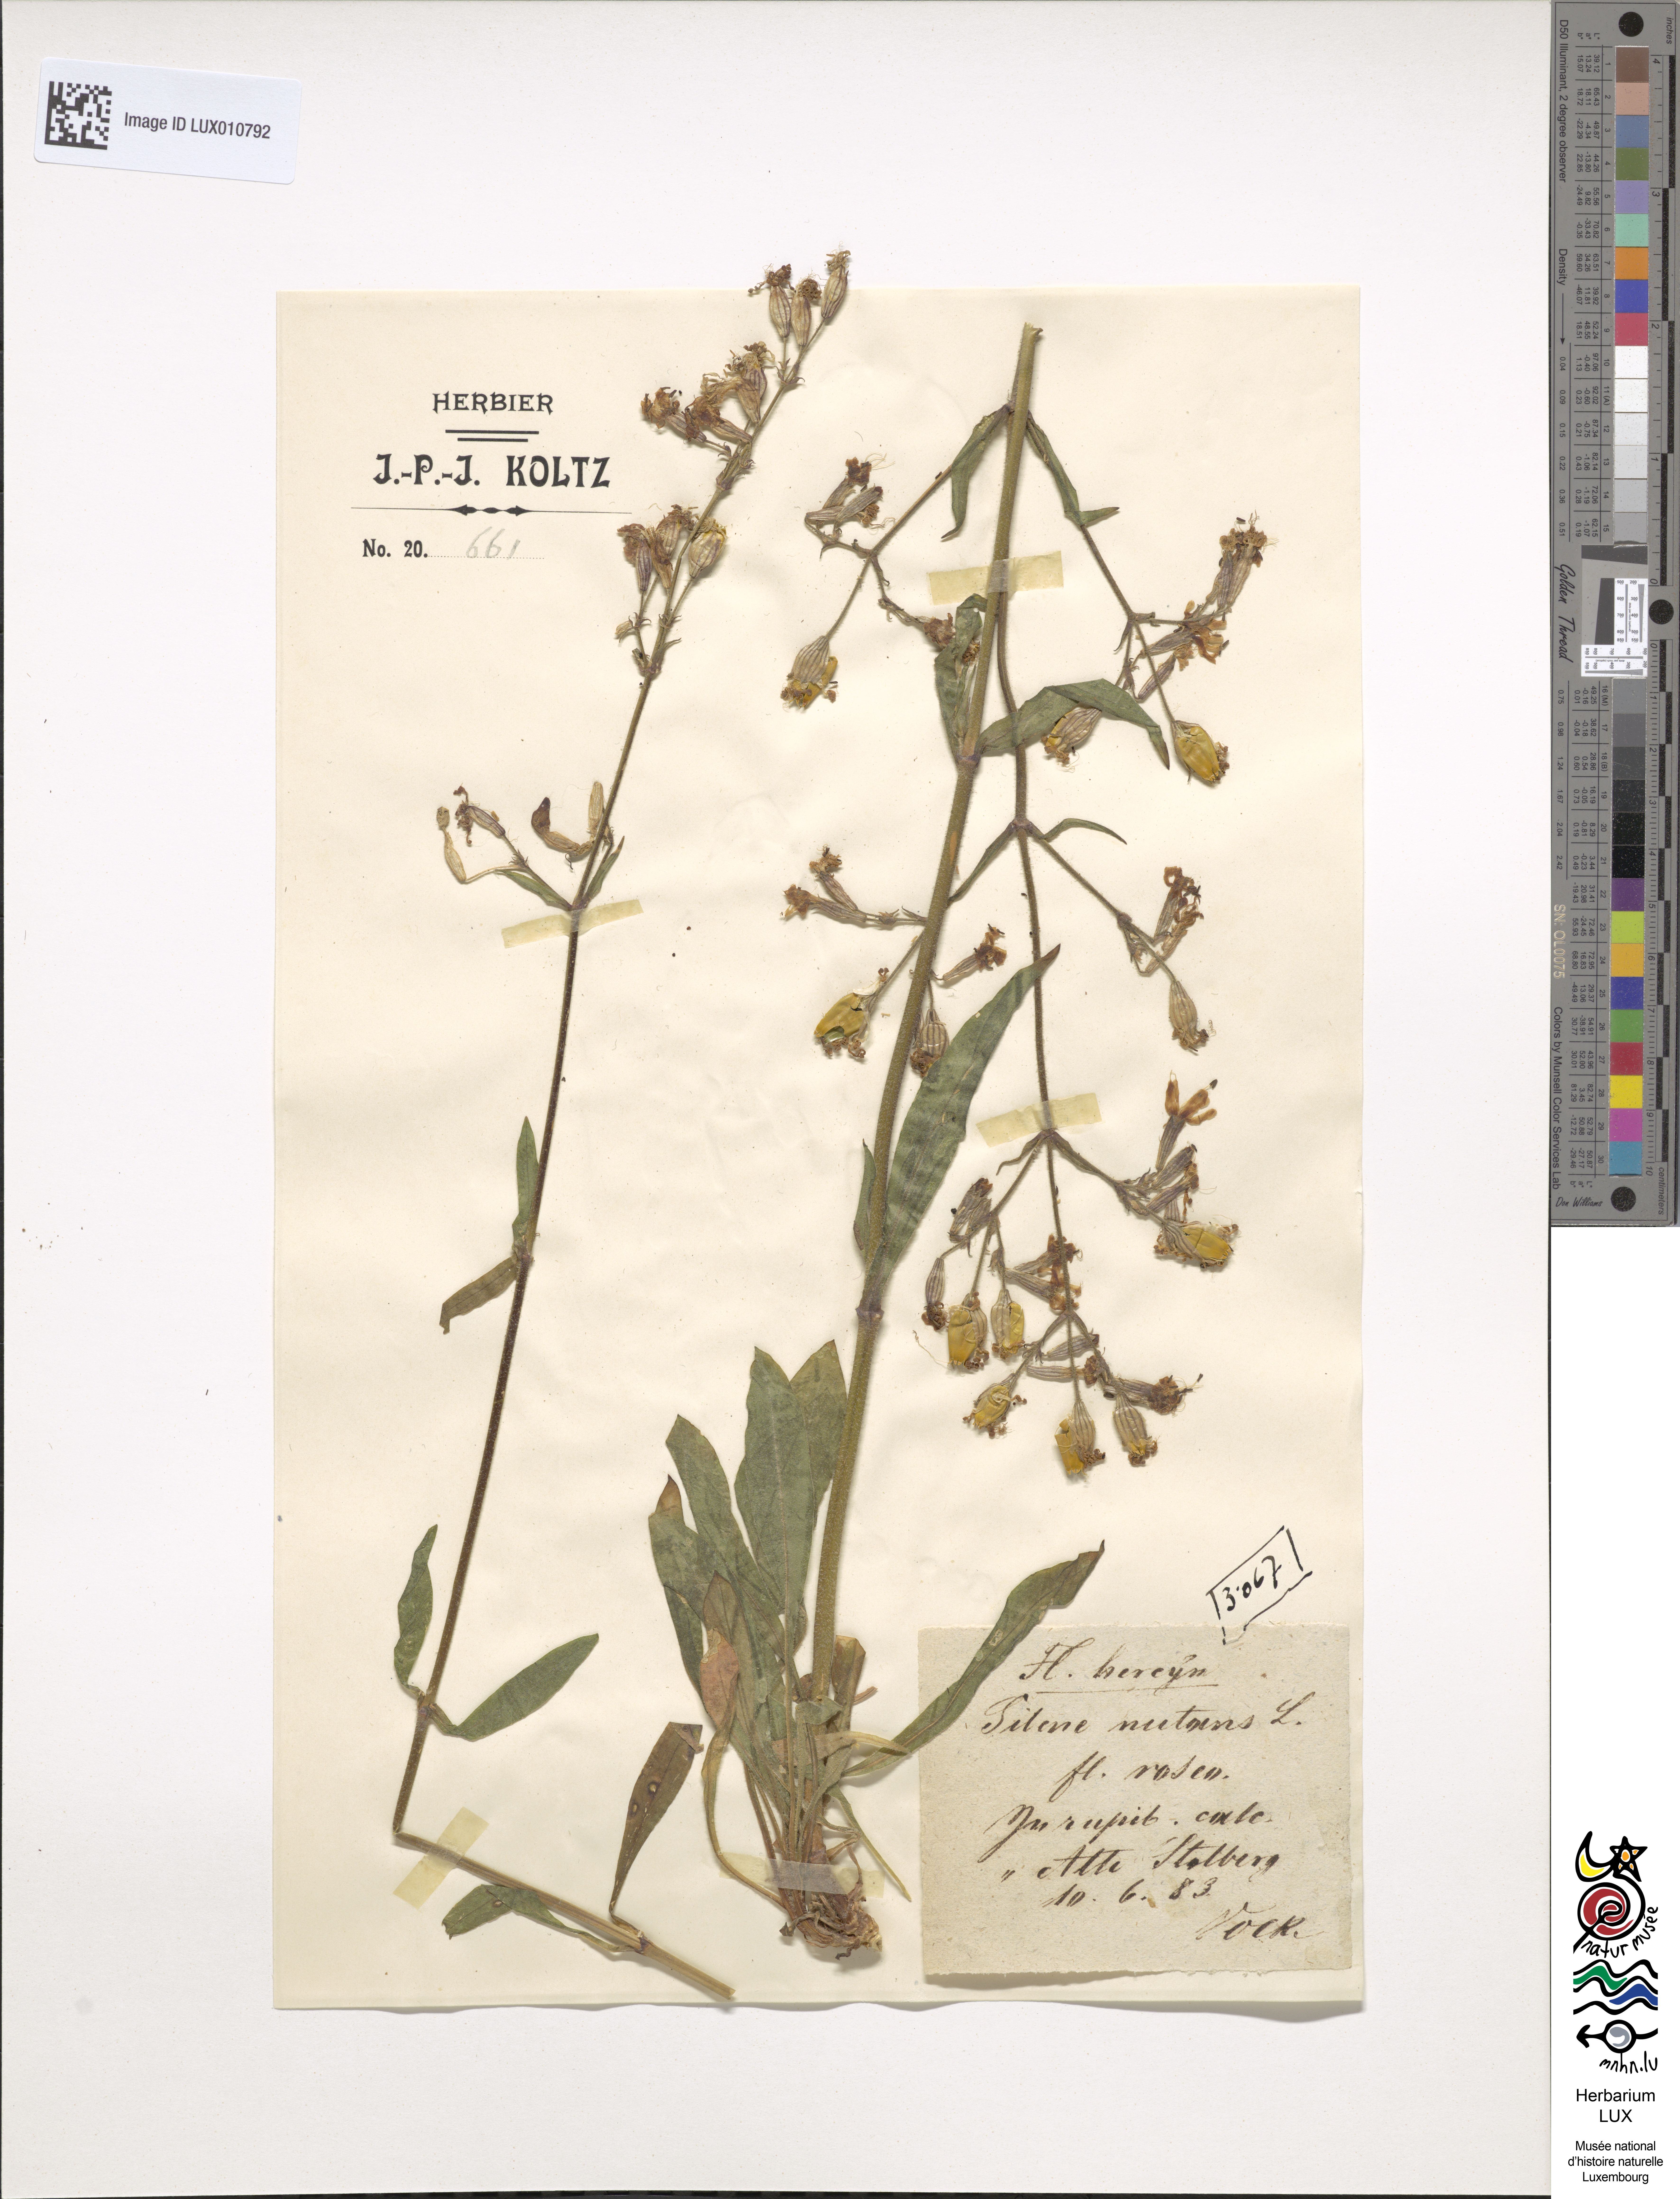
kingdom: Plantae
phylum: Tracheophyta
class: Magnoliopsida
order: Caryophyllales
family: Caryophyllaceae
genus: Silene
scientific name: Silene nutans
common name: Nottingham catchfly
